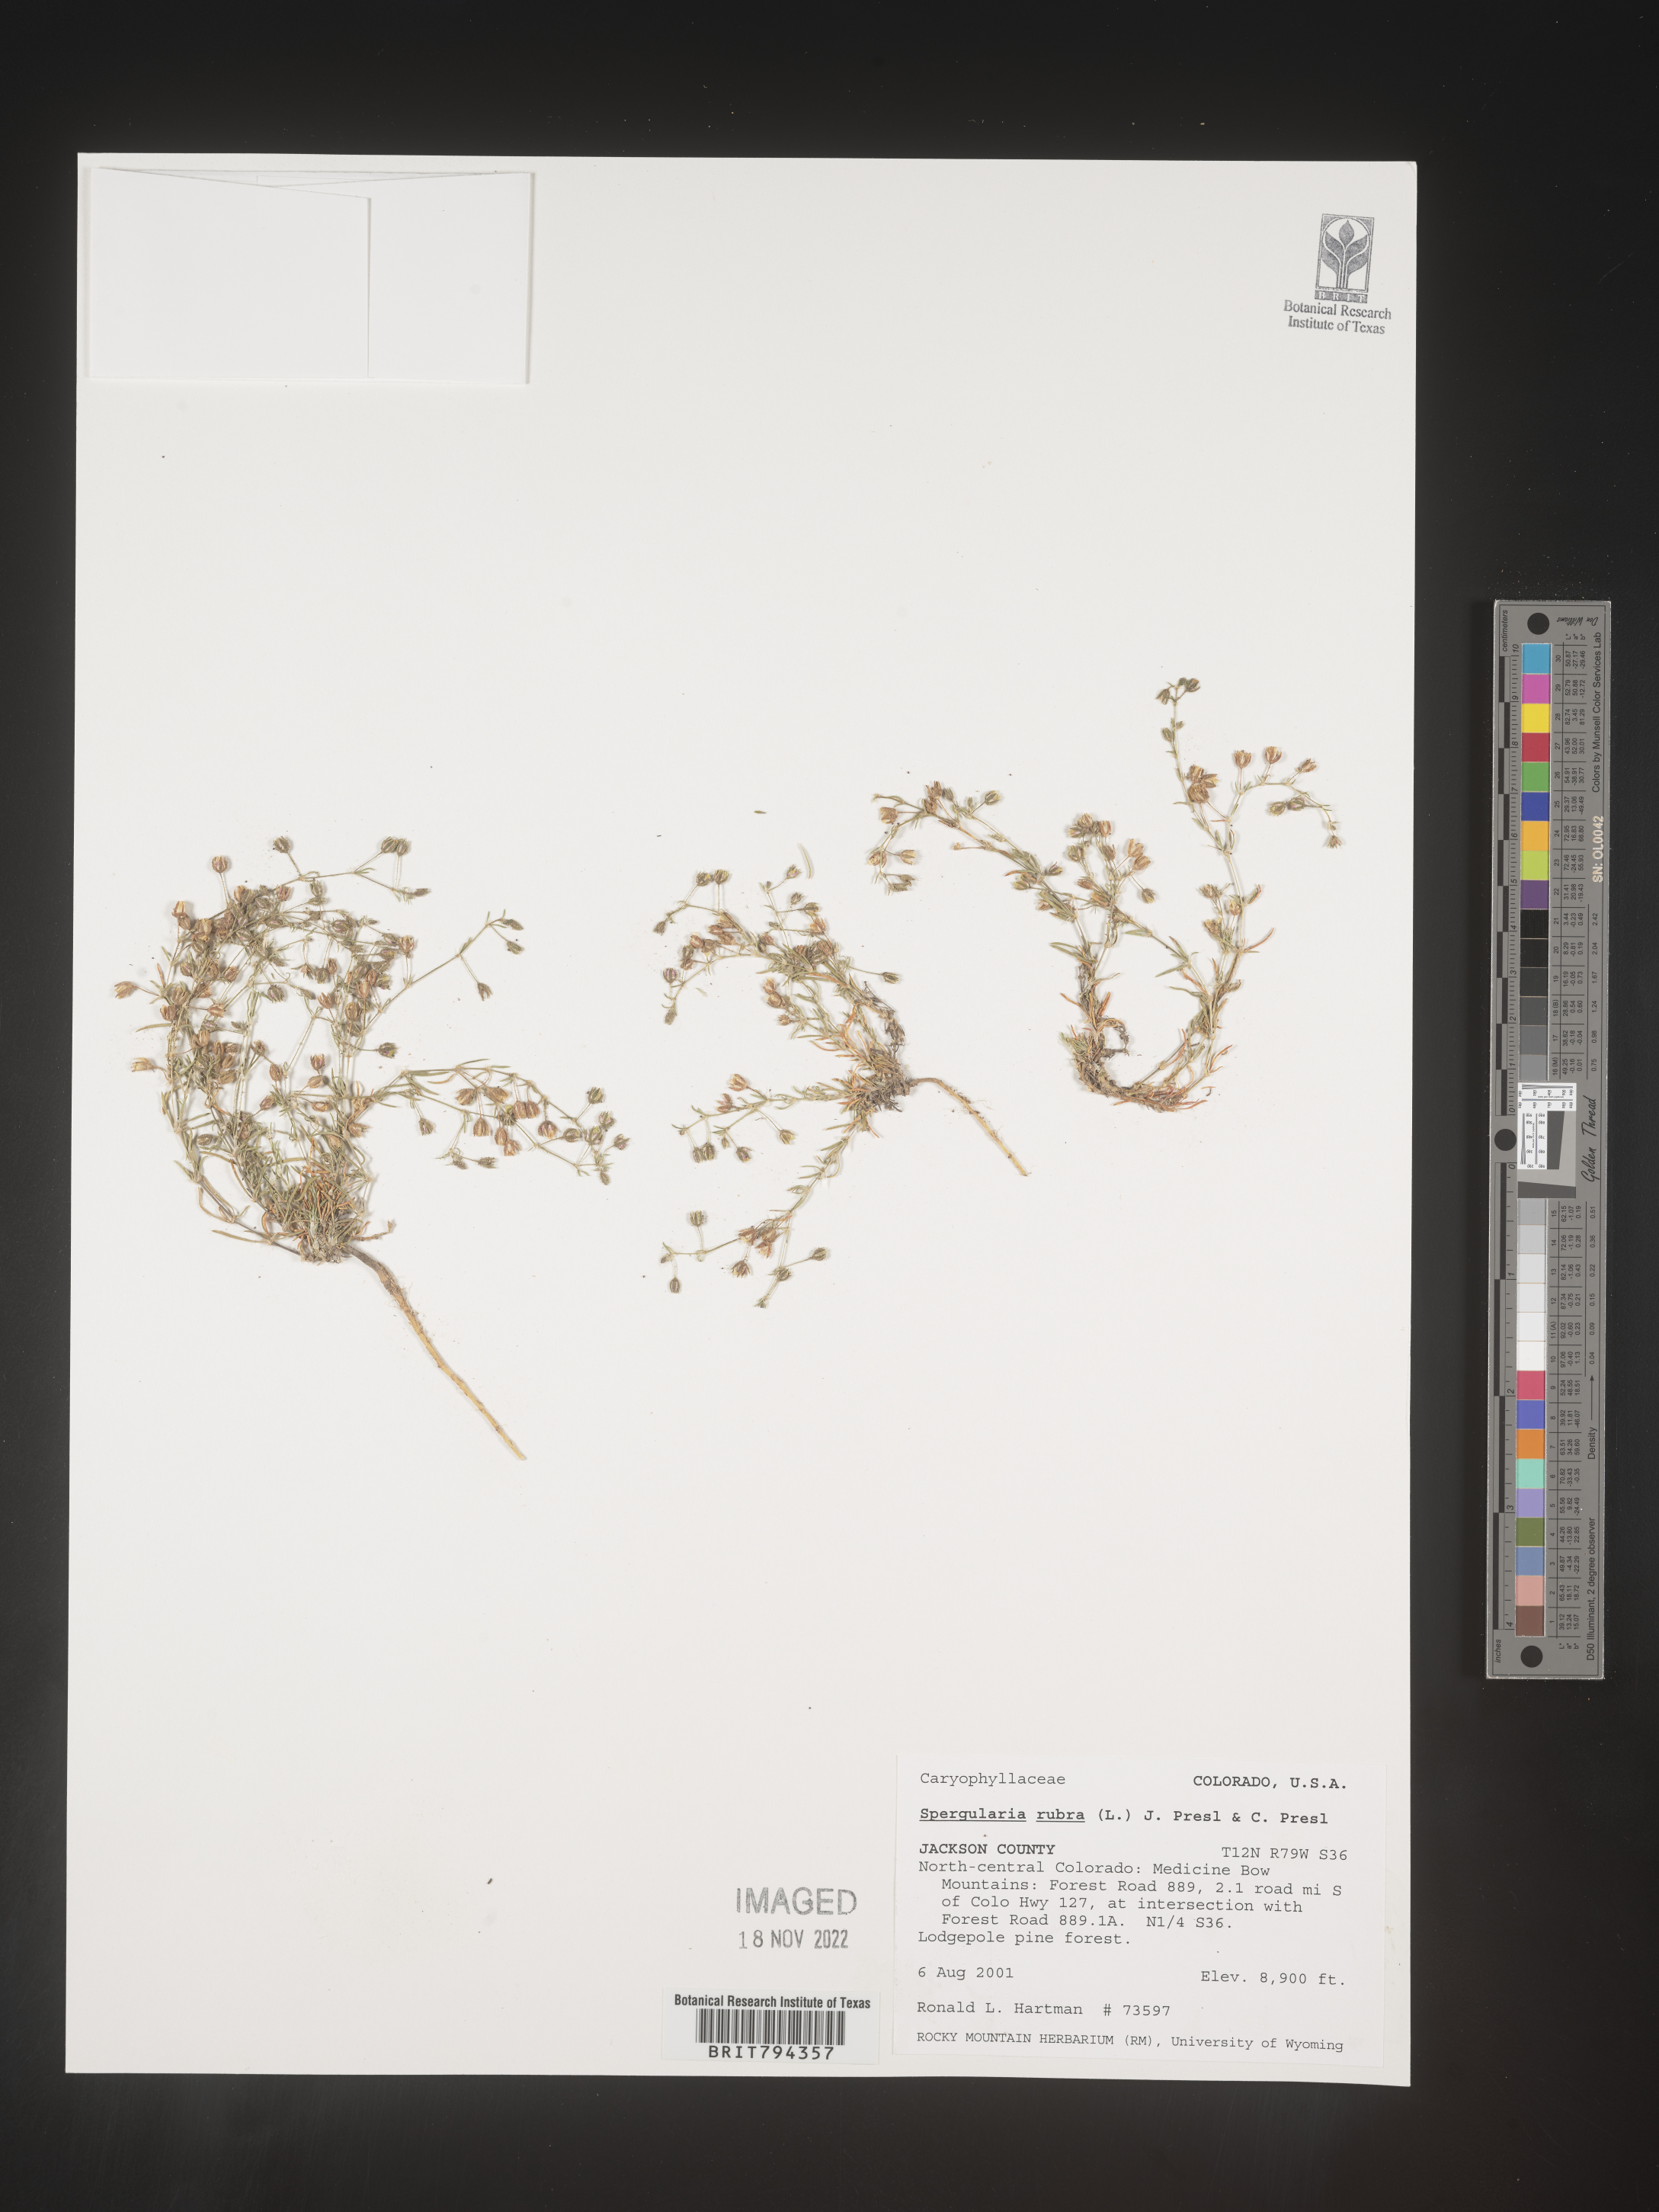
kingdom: Plantae
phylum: Tracheophyta
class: Magnoliopsida
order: Caryophyllales
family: Caryophyllaceae
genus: Spergularia
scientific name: Spergularia rubra
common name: Red sand-spurrey
